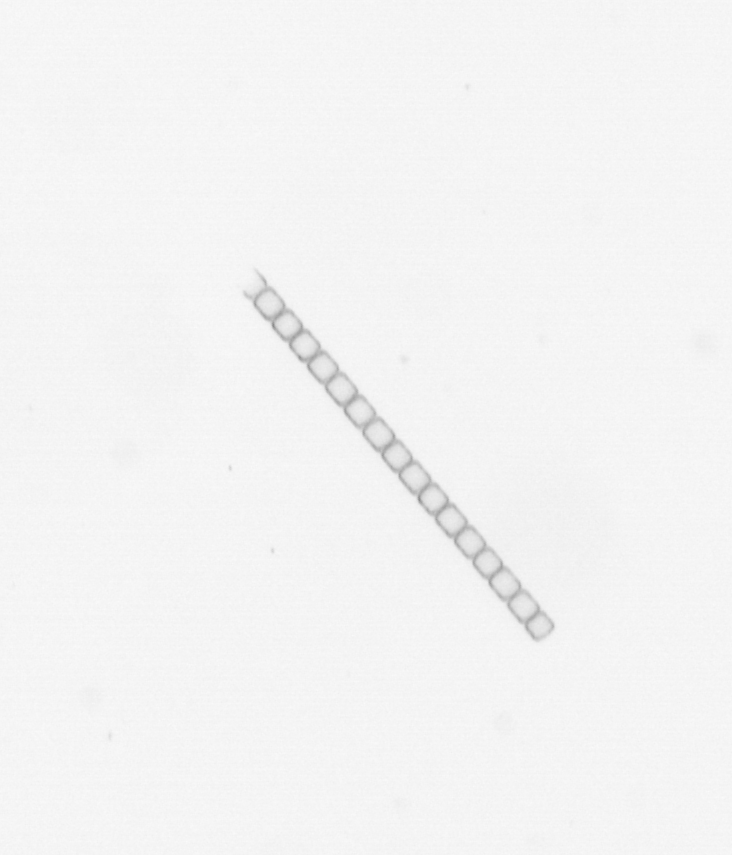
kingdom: Chromista
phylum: Ochrophyta
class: Bacillariophyceae
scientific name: Bacillariophyceae
